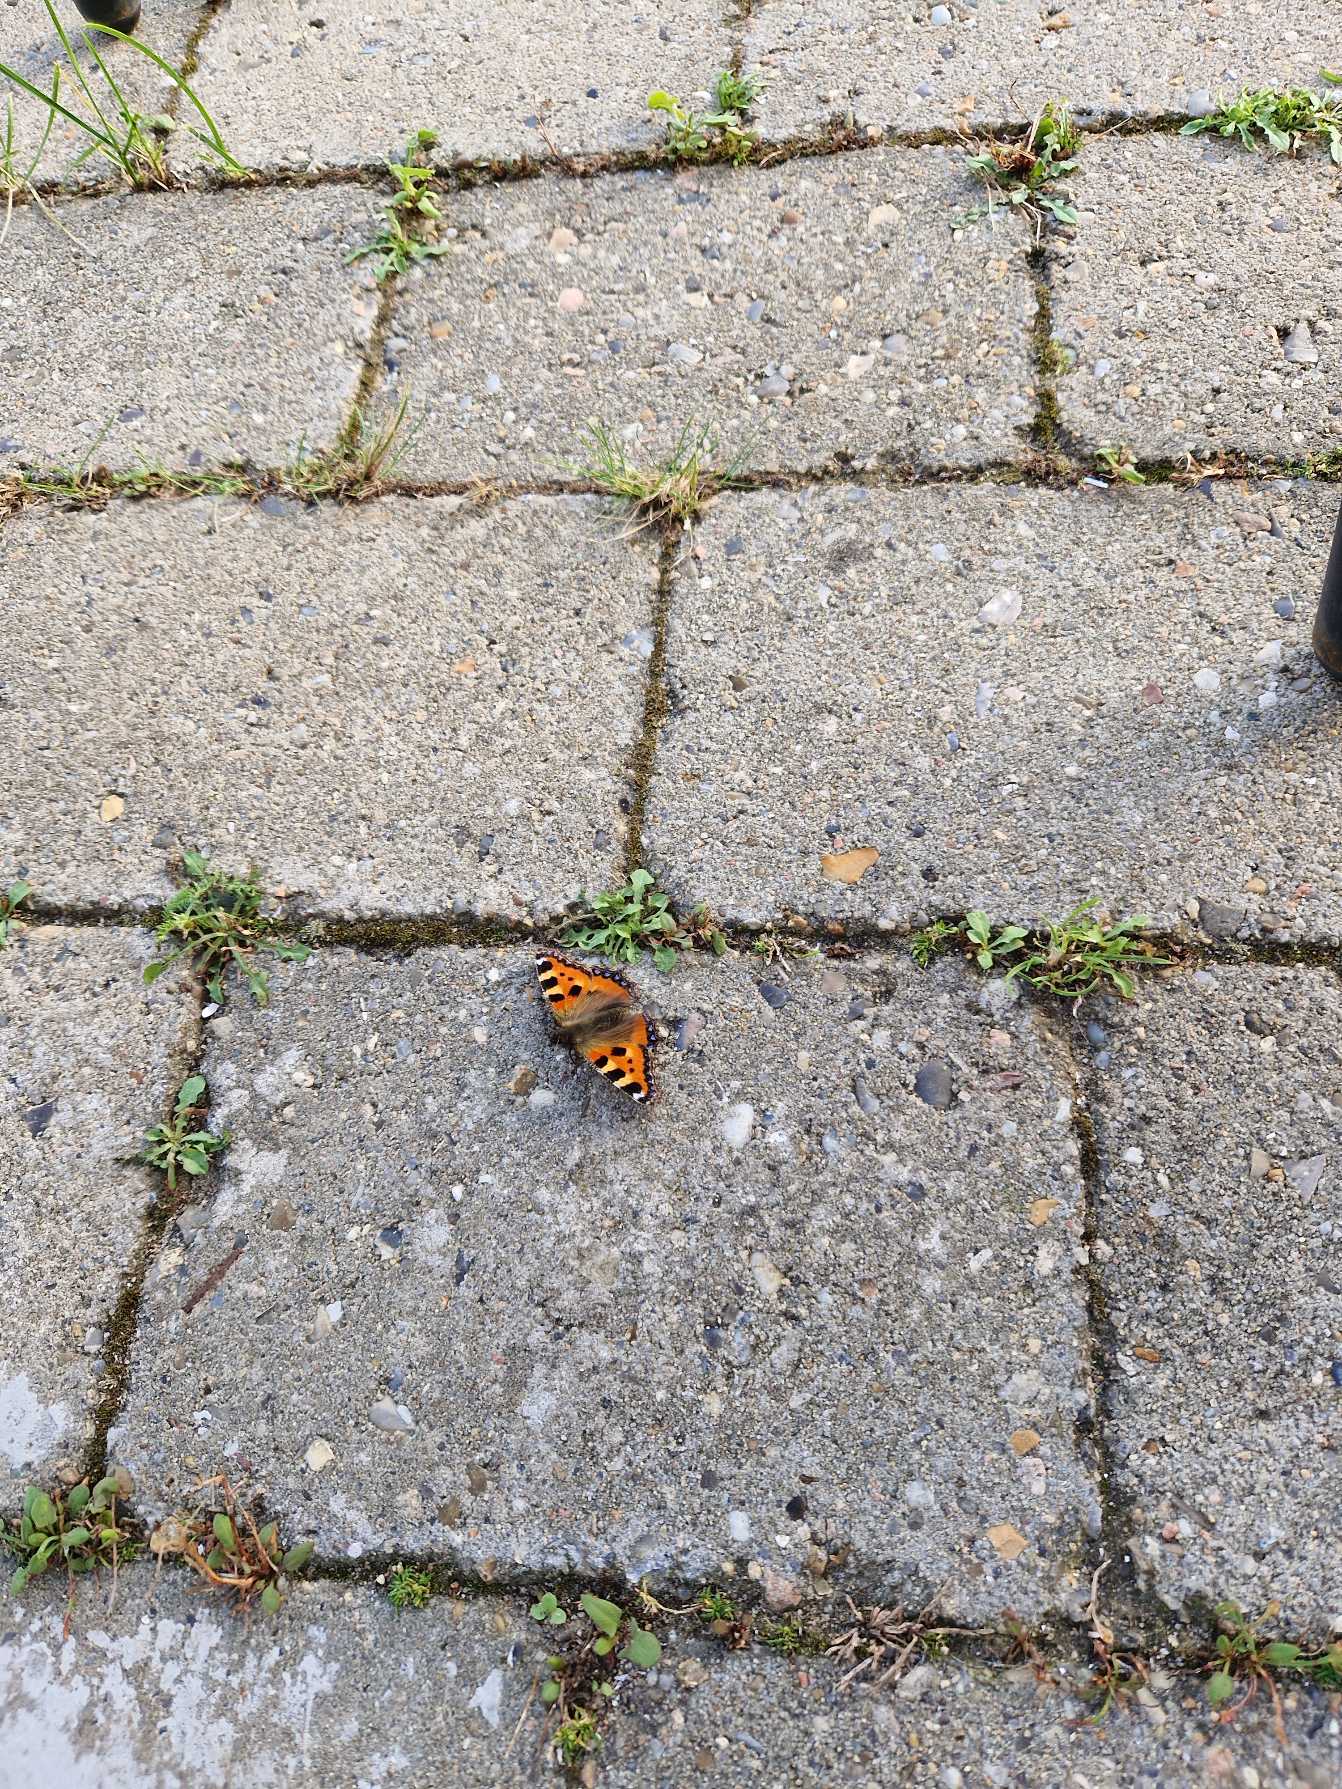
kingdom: Animalia
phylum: Arthropoda
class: Insecta
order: Lepidoptera
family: Nymphalidae
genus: Aglais
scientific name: Aglais urticae
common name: Nældens takvinge
